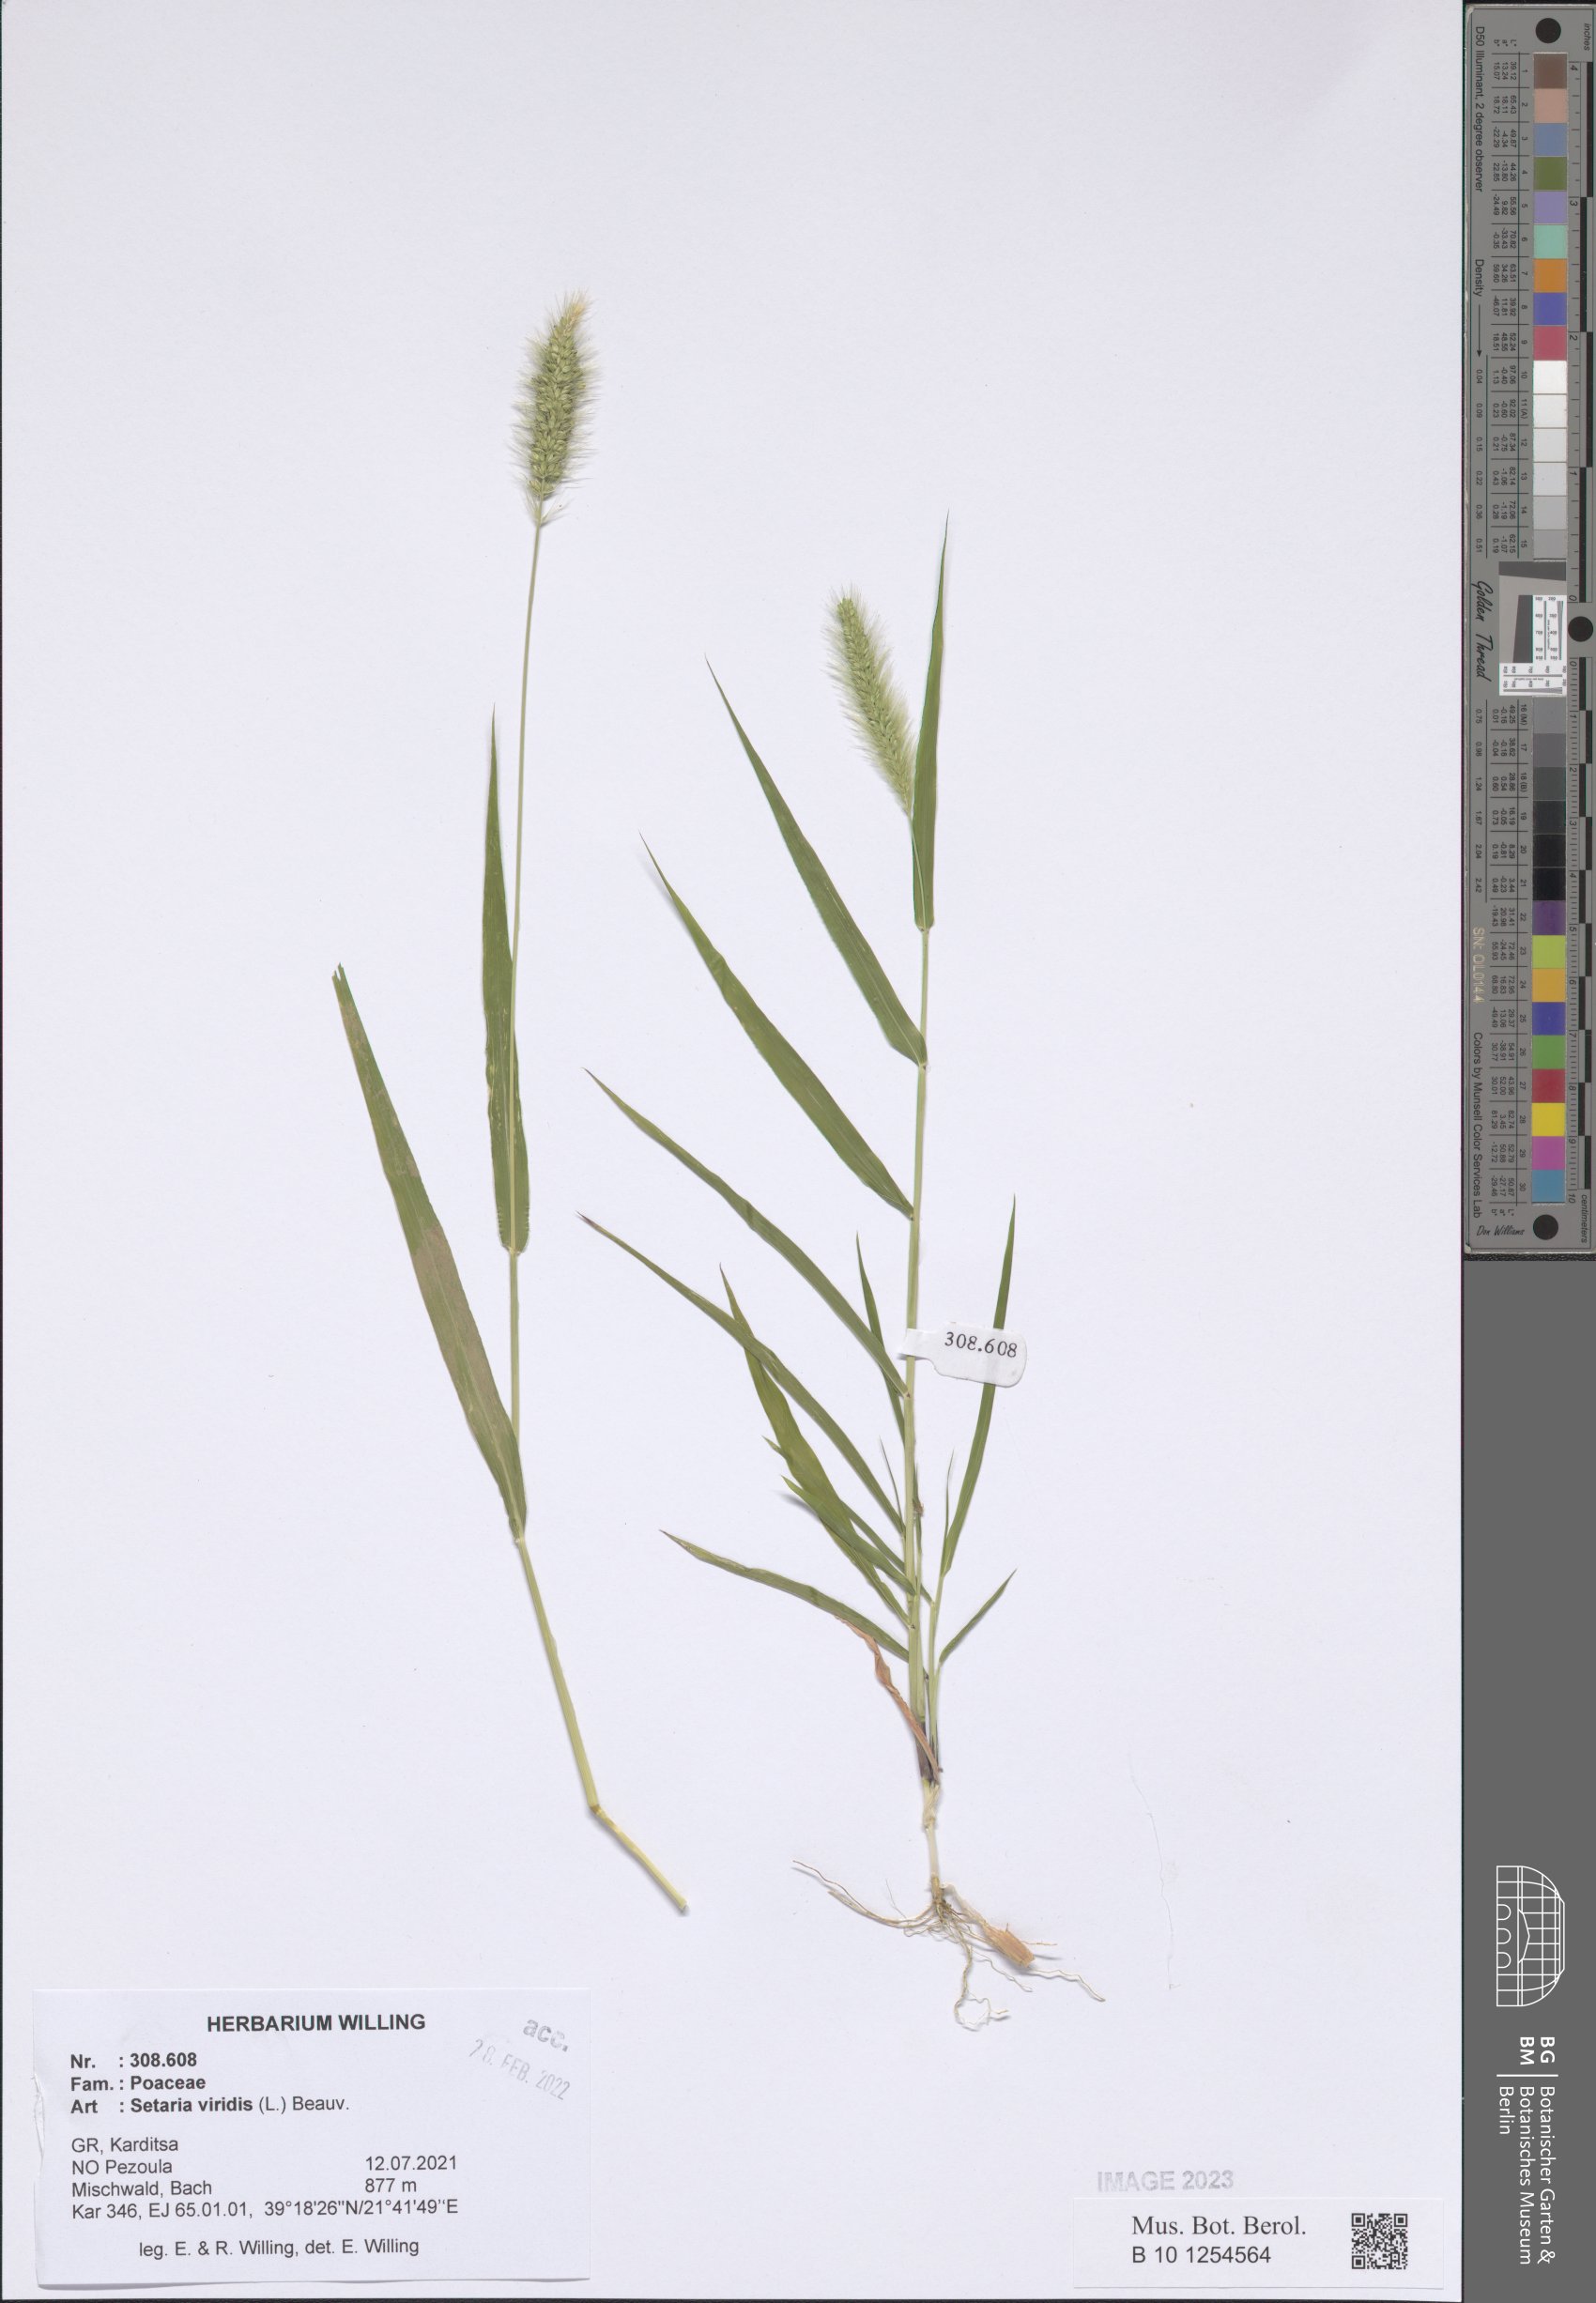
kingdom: Plantae
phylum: Tracheophyta
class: Liliopsida
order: Poales
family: Poaceae
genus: Setaria
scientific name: Setaria viridis
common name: Green bristlegrass
